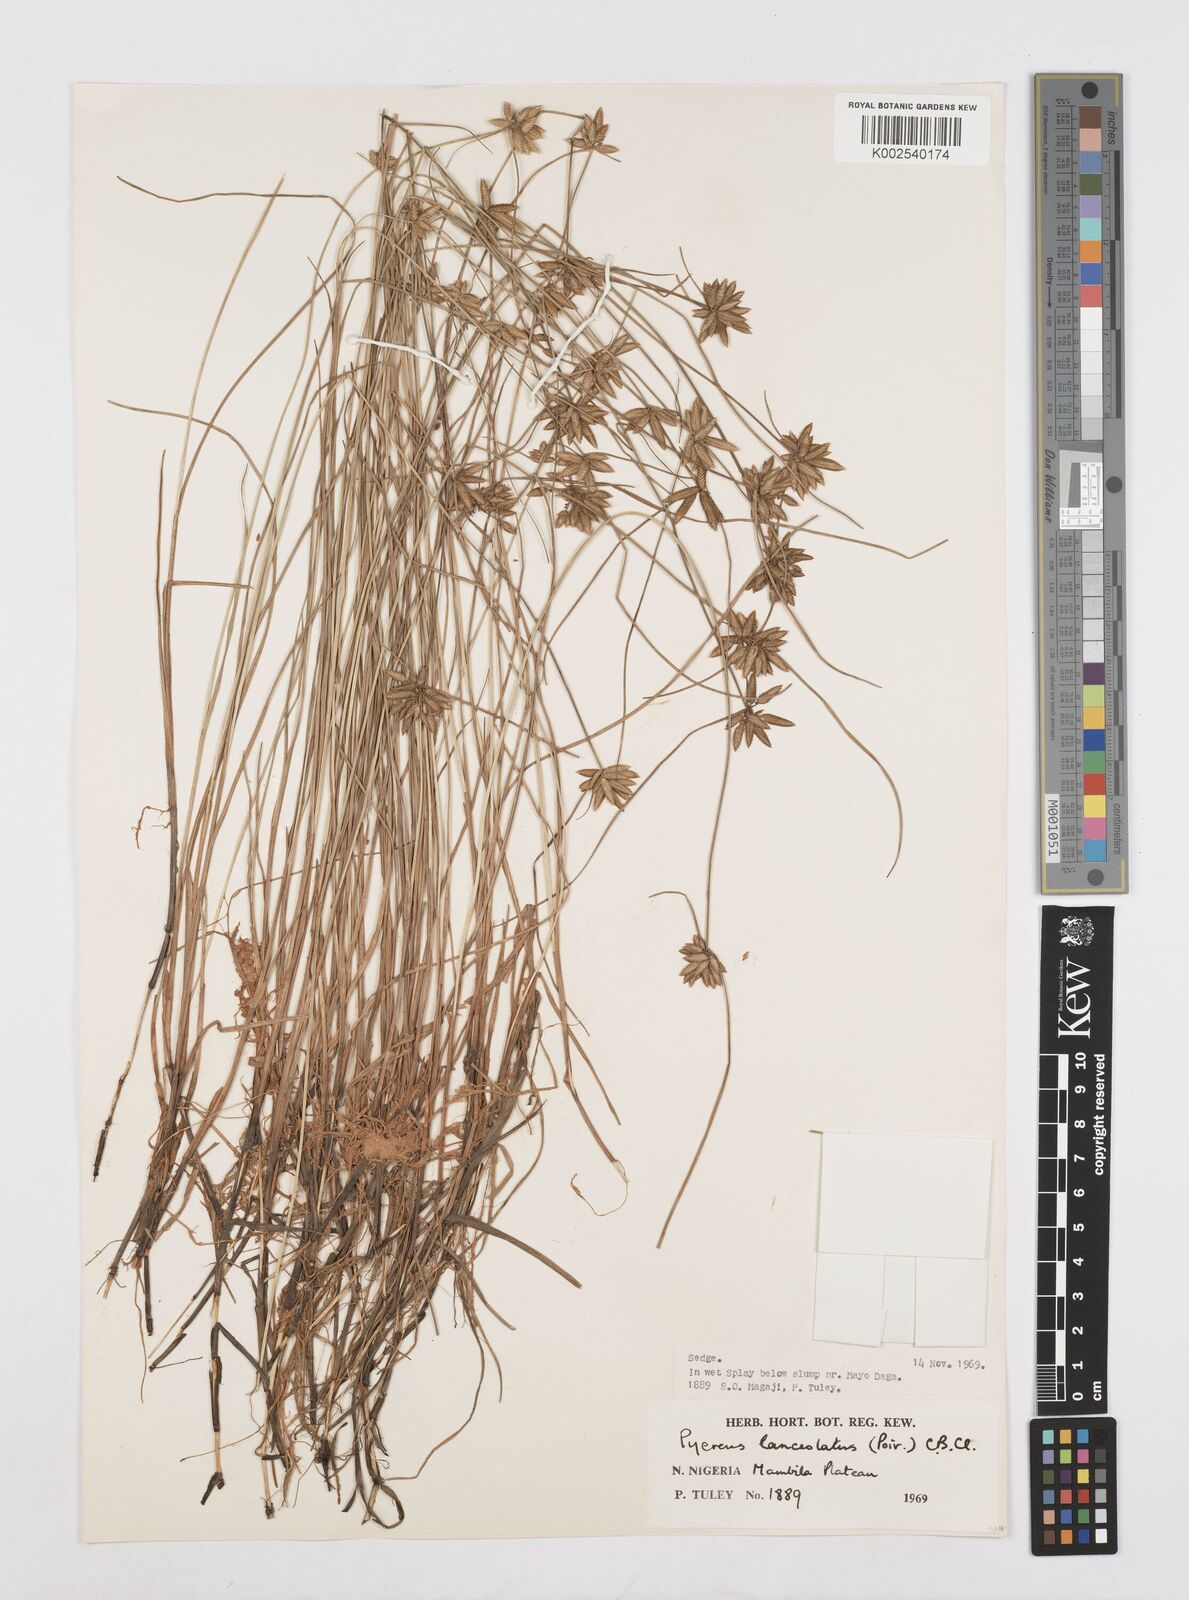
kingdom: Plantae
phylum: Tracheophyta
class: Liliopsida
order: Poales
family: Cyperaceae
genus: Cyperus
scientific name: Cyperus
